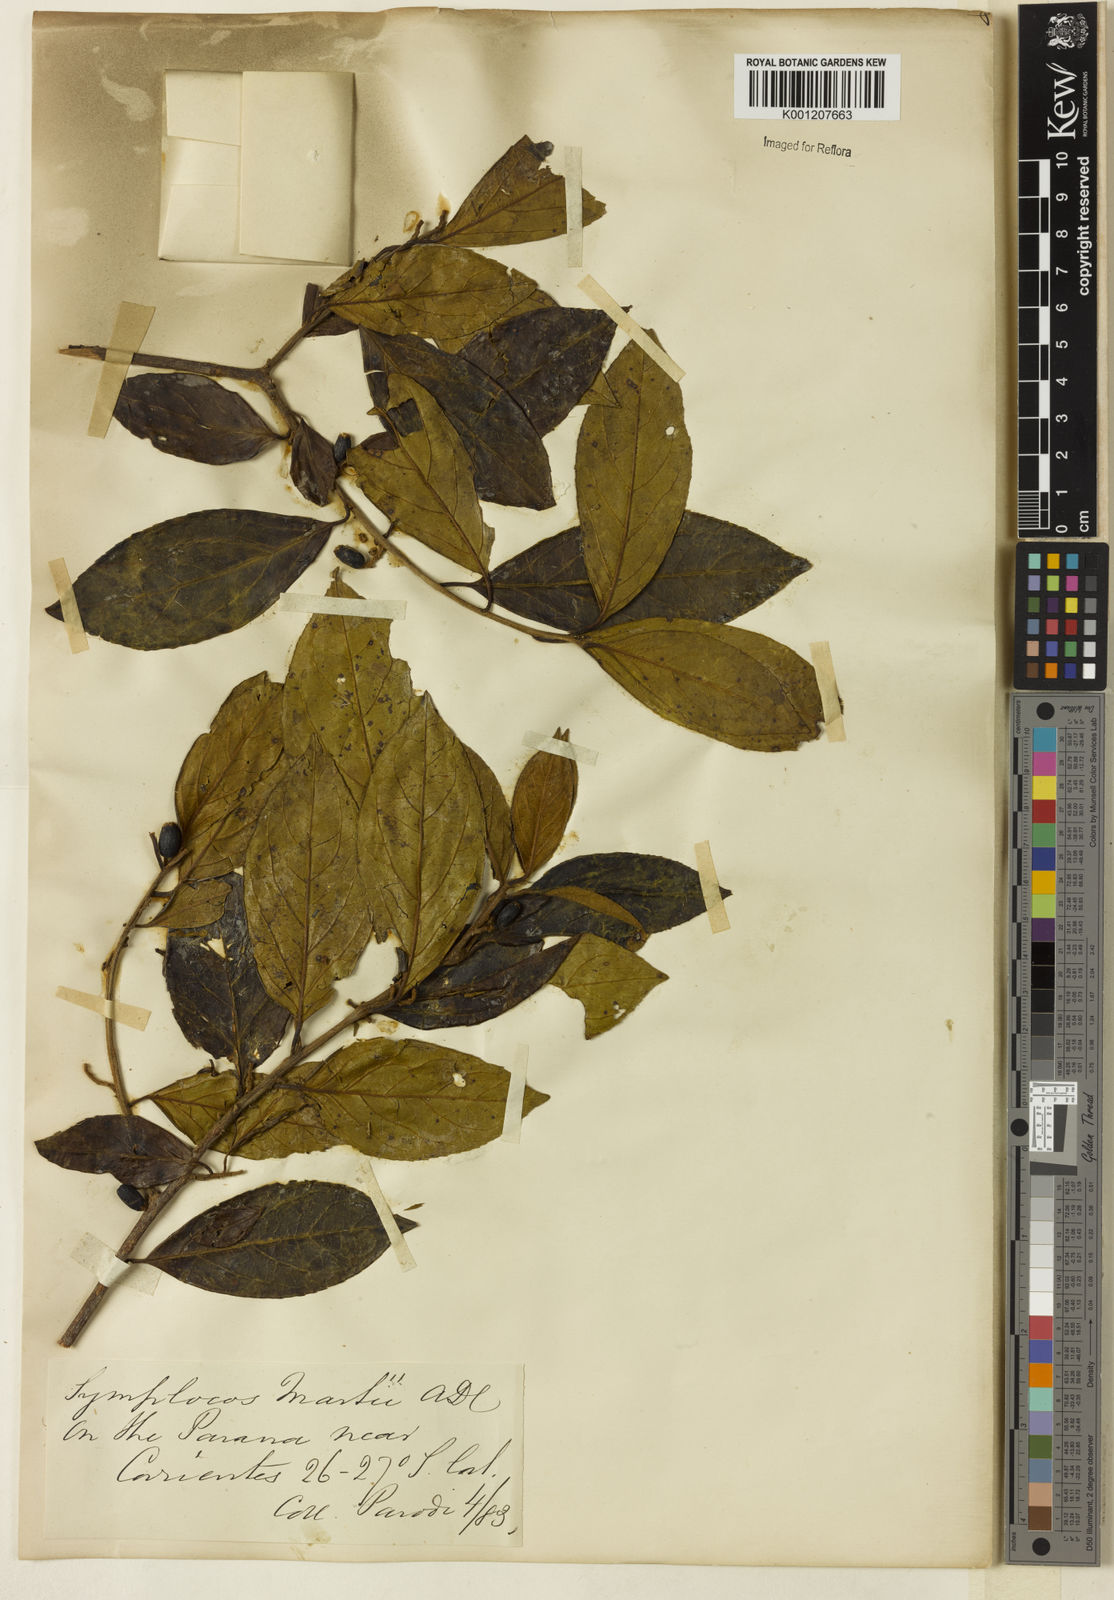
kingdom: Plantae
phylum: Tracheophyta
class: Magnoliopsida
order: Ericales
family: Symplocaceae
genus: Symplocos
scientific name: Symplocos pubescens
